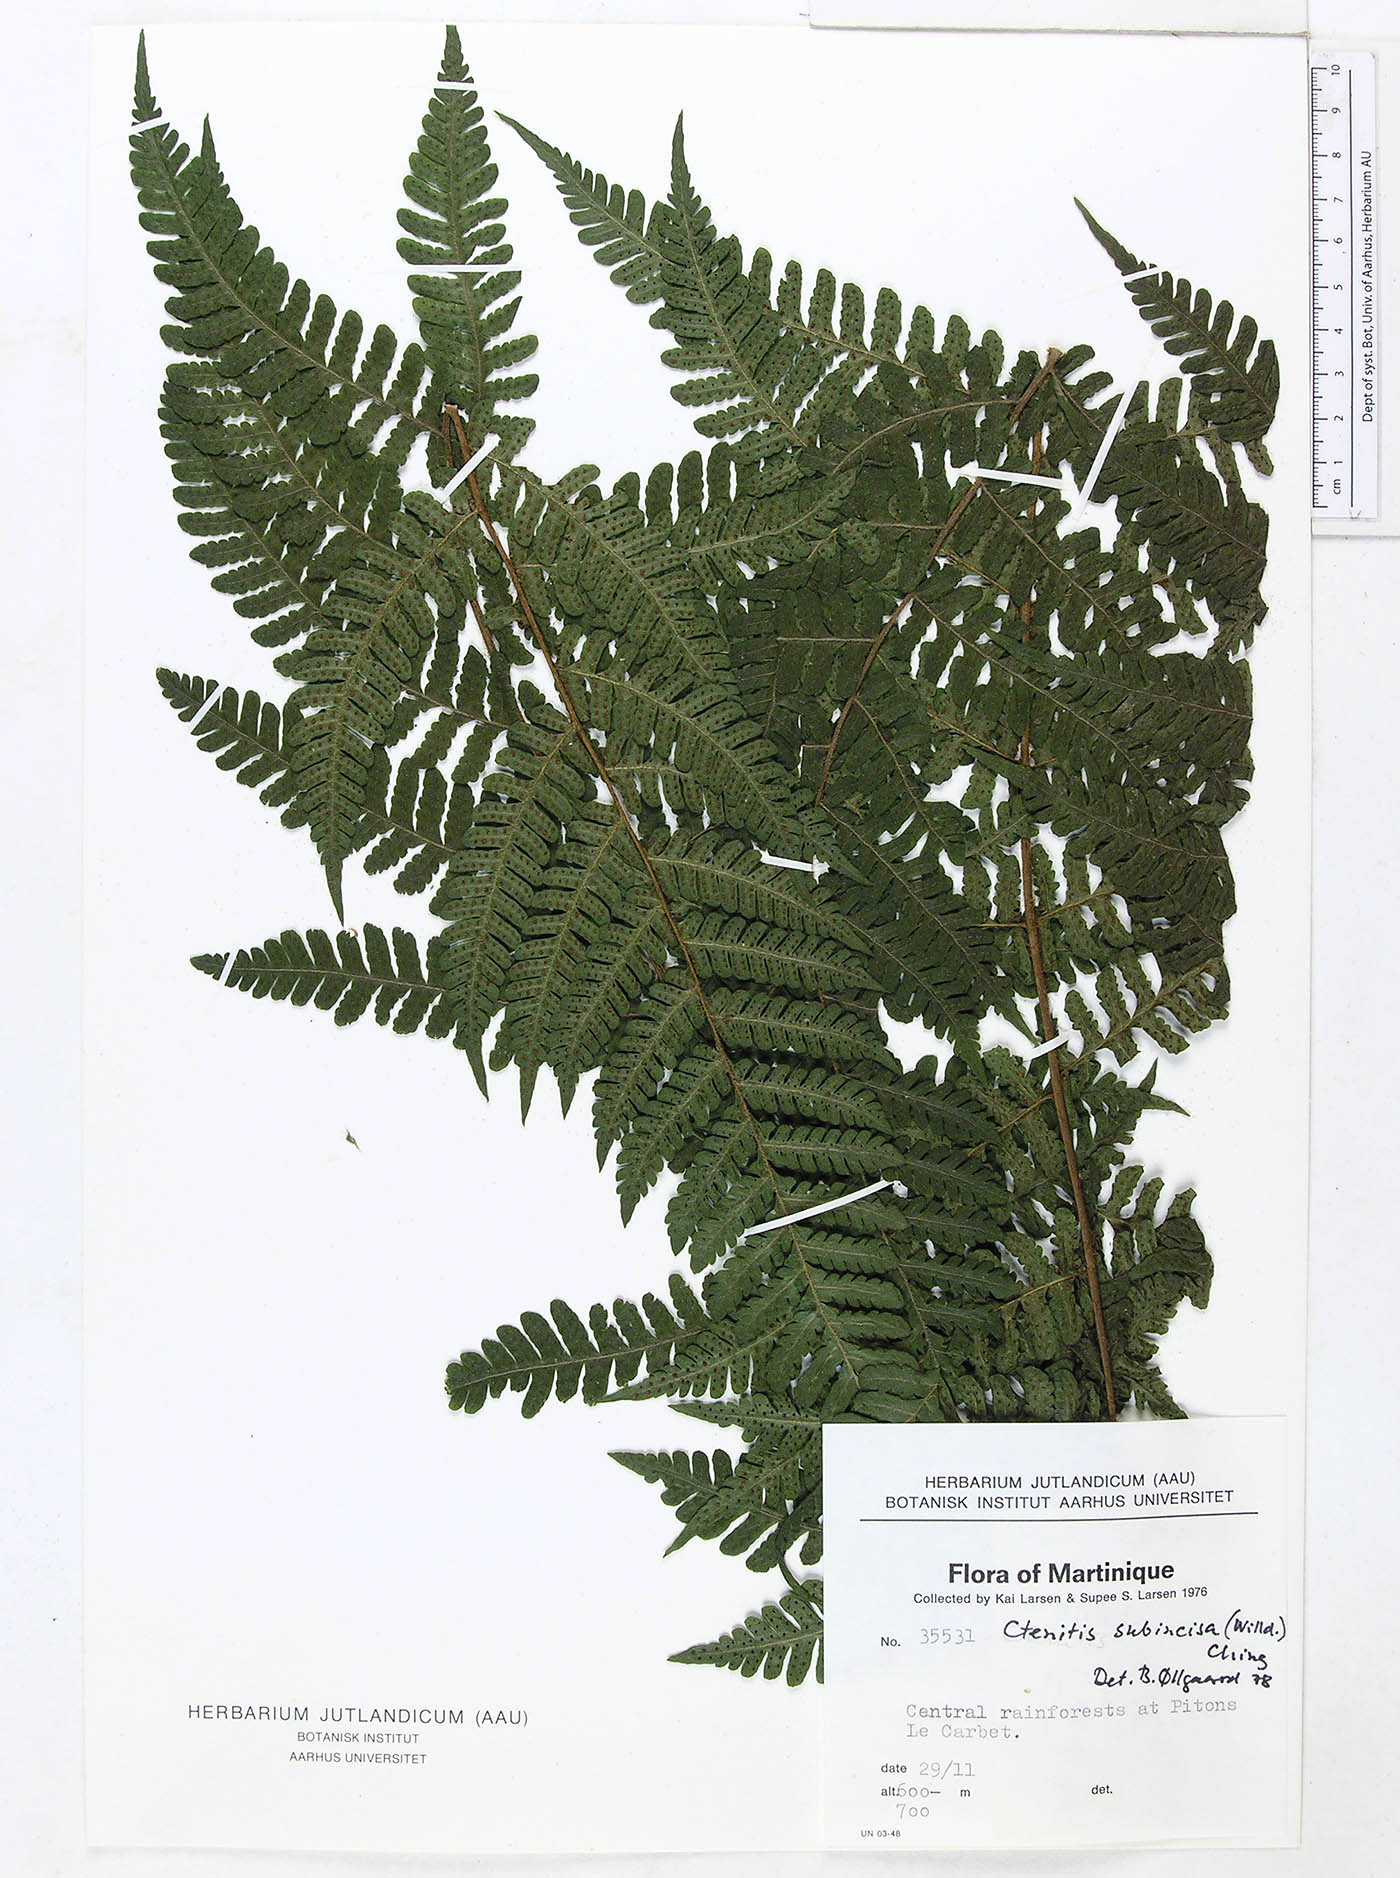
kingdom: Plantae
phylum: Tracheophyta
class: Polypodiopsida
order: Polypodiales
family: Dryopteridaceae
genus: Megalastrum
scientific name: Megalastrum martinicense
